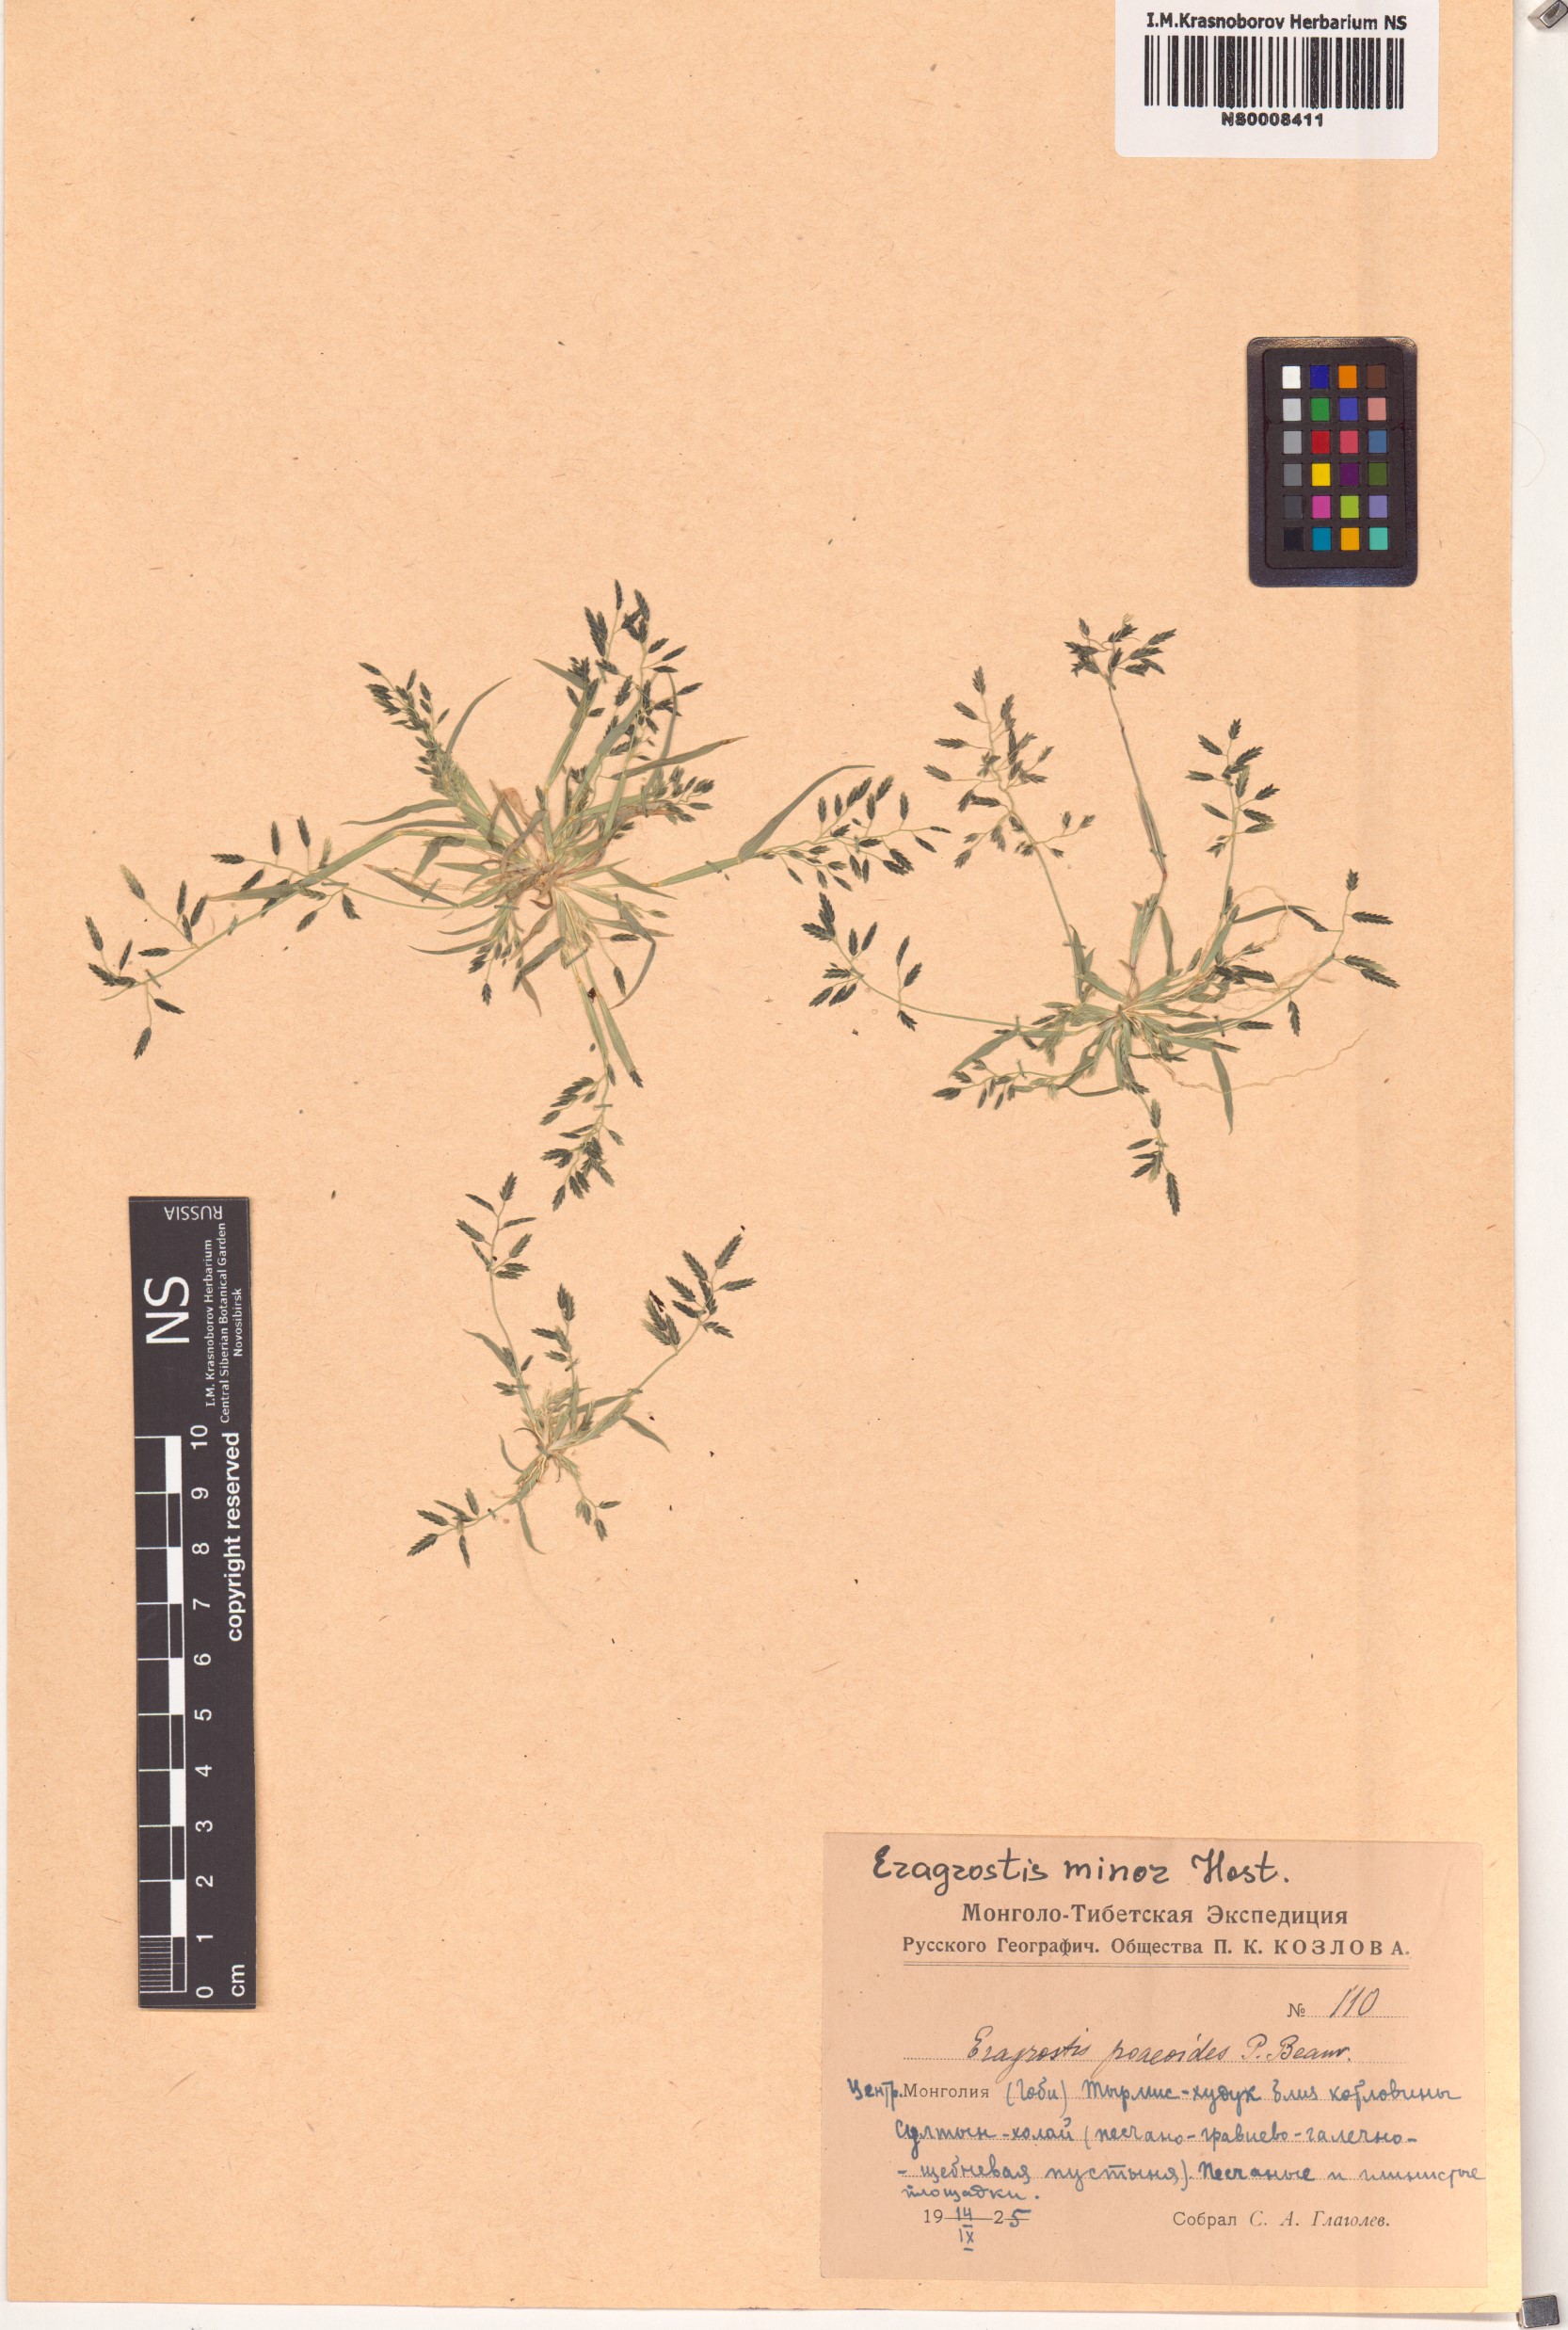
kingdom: Plantae
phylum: Tracheophyta
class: Liliopsida
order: Poales
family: Poaceae
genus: Eragrostis
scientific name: Eragrostis minor
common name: Small love-grass
